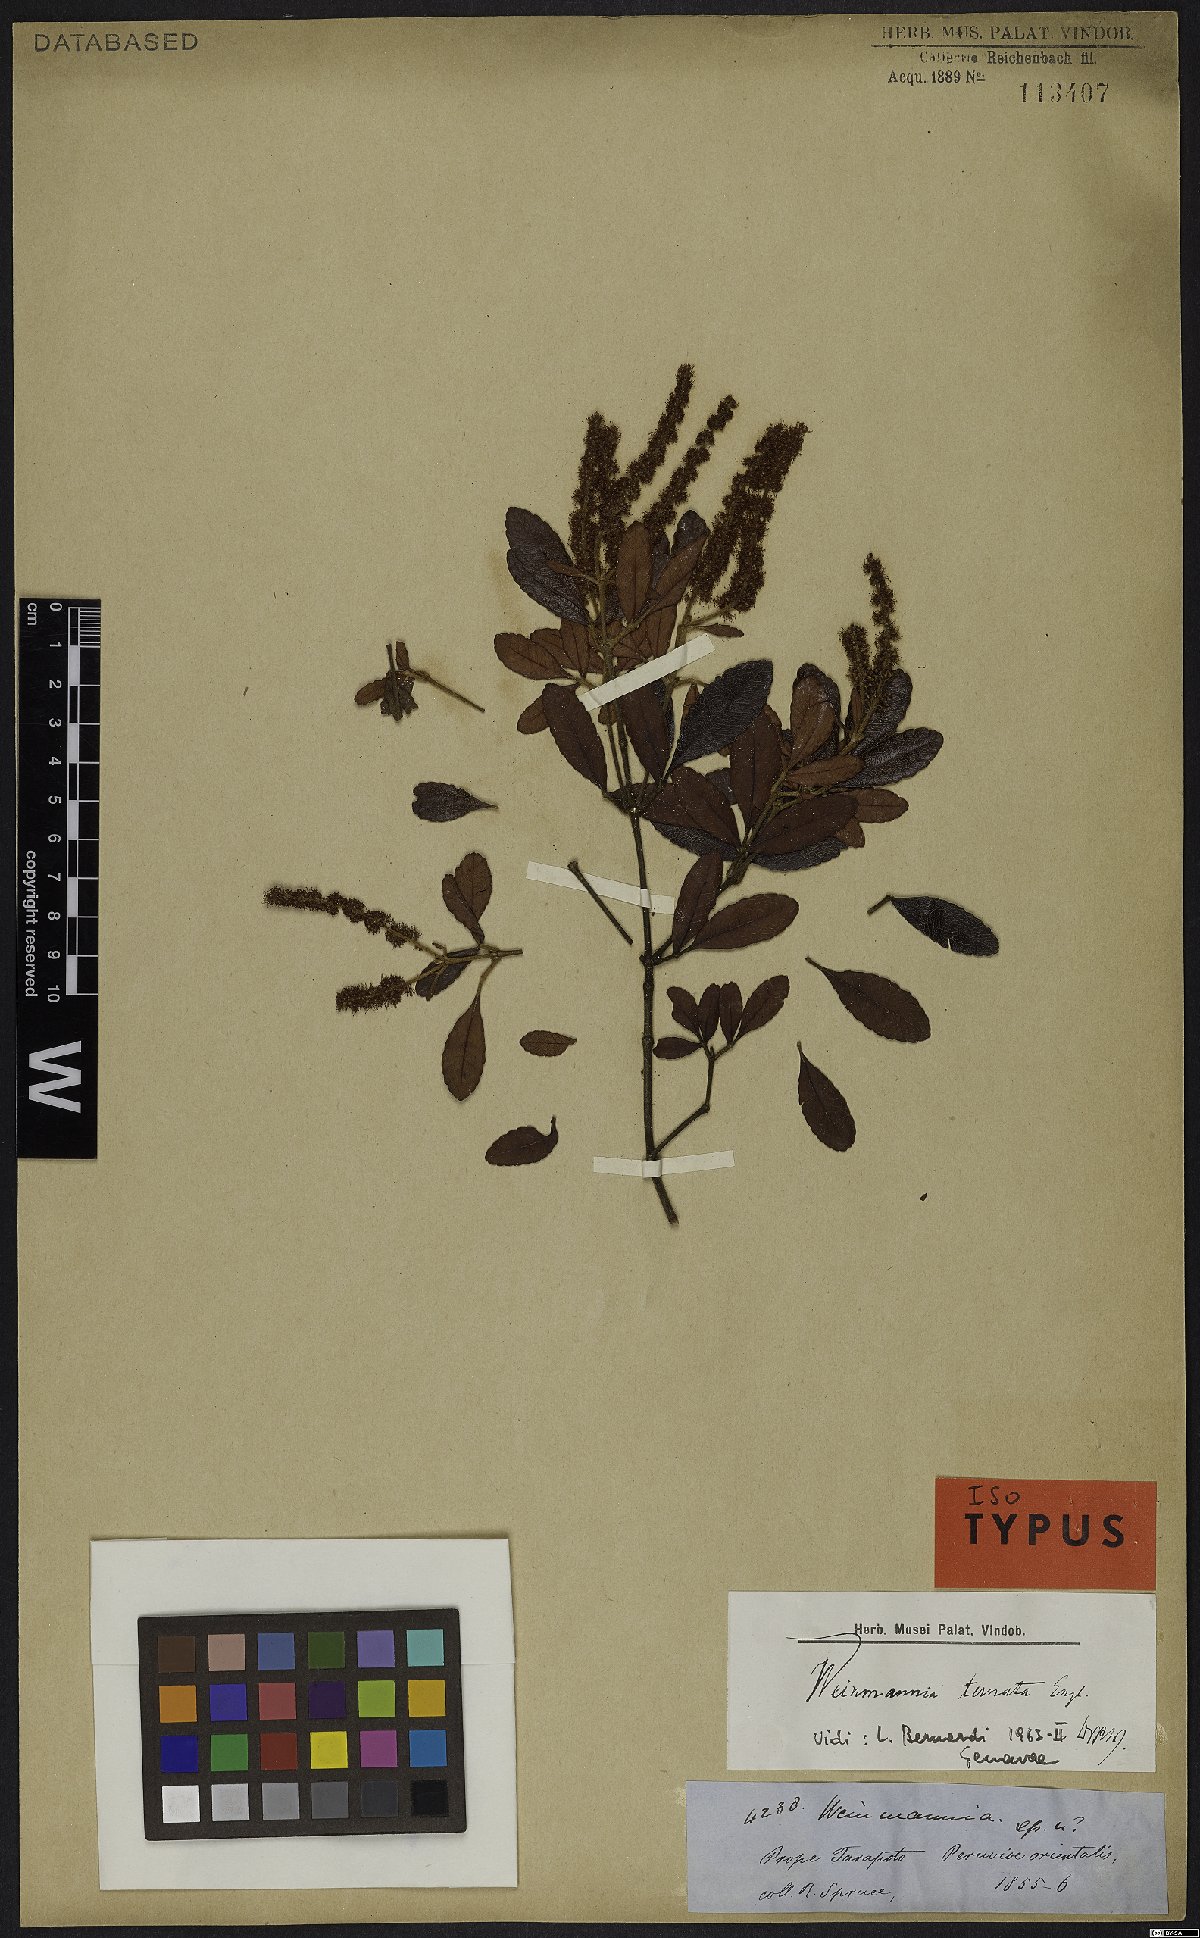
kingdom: Plantae
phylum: Tracheophyta
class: Magnoliopsida
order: Oxalidales
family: Cunoniaceae
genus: Weinmannia
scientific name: Weinmannia ternata
